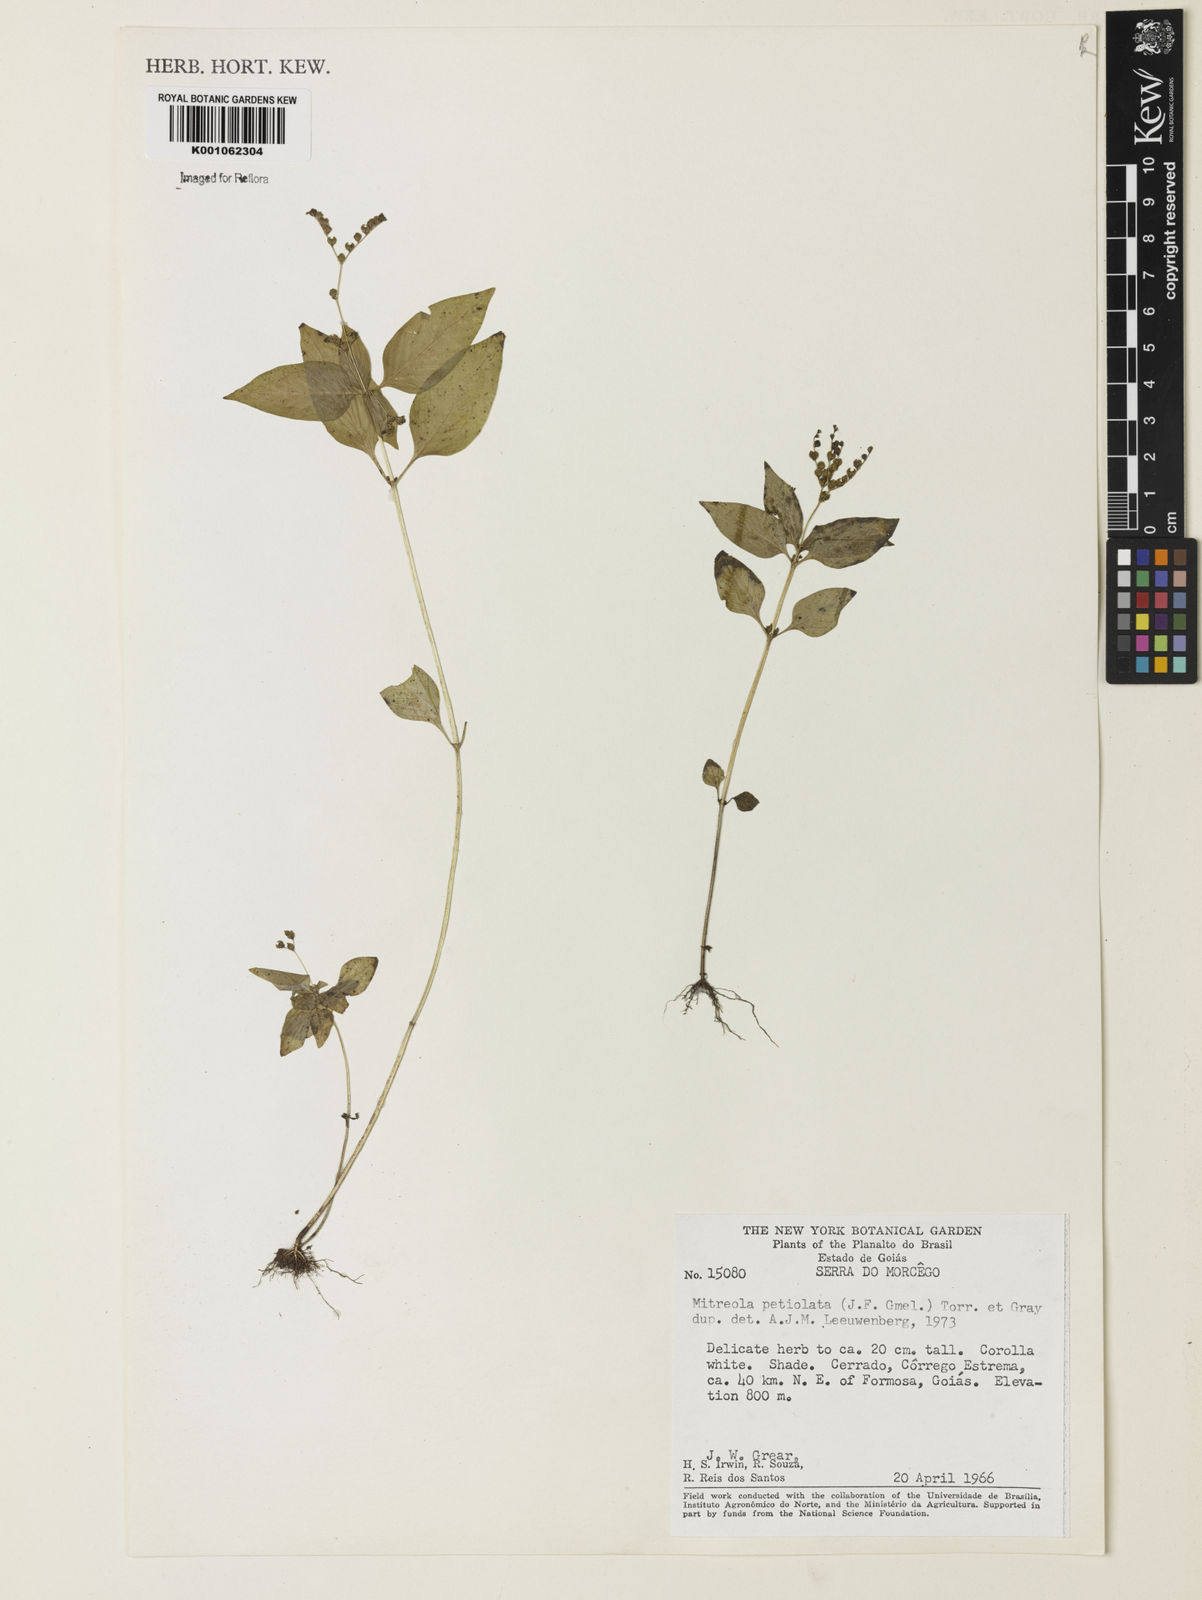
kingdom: Plantae
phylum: Tracheophyta
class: Magnoliopsida
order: Gentianales
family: Loganiaceae
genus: Mitreola
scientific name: Mitreola petiolata
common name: Lax hornpod
